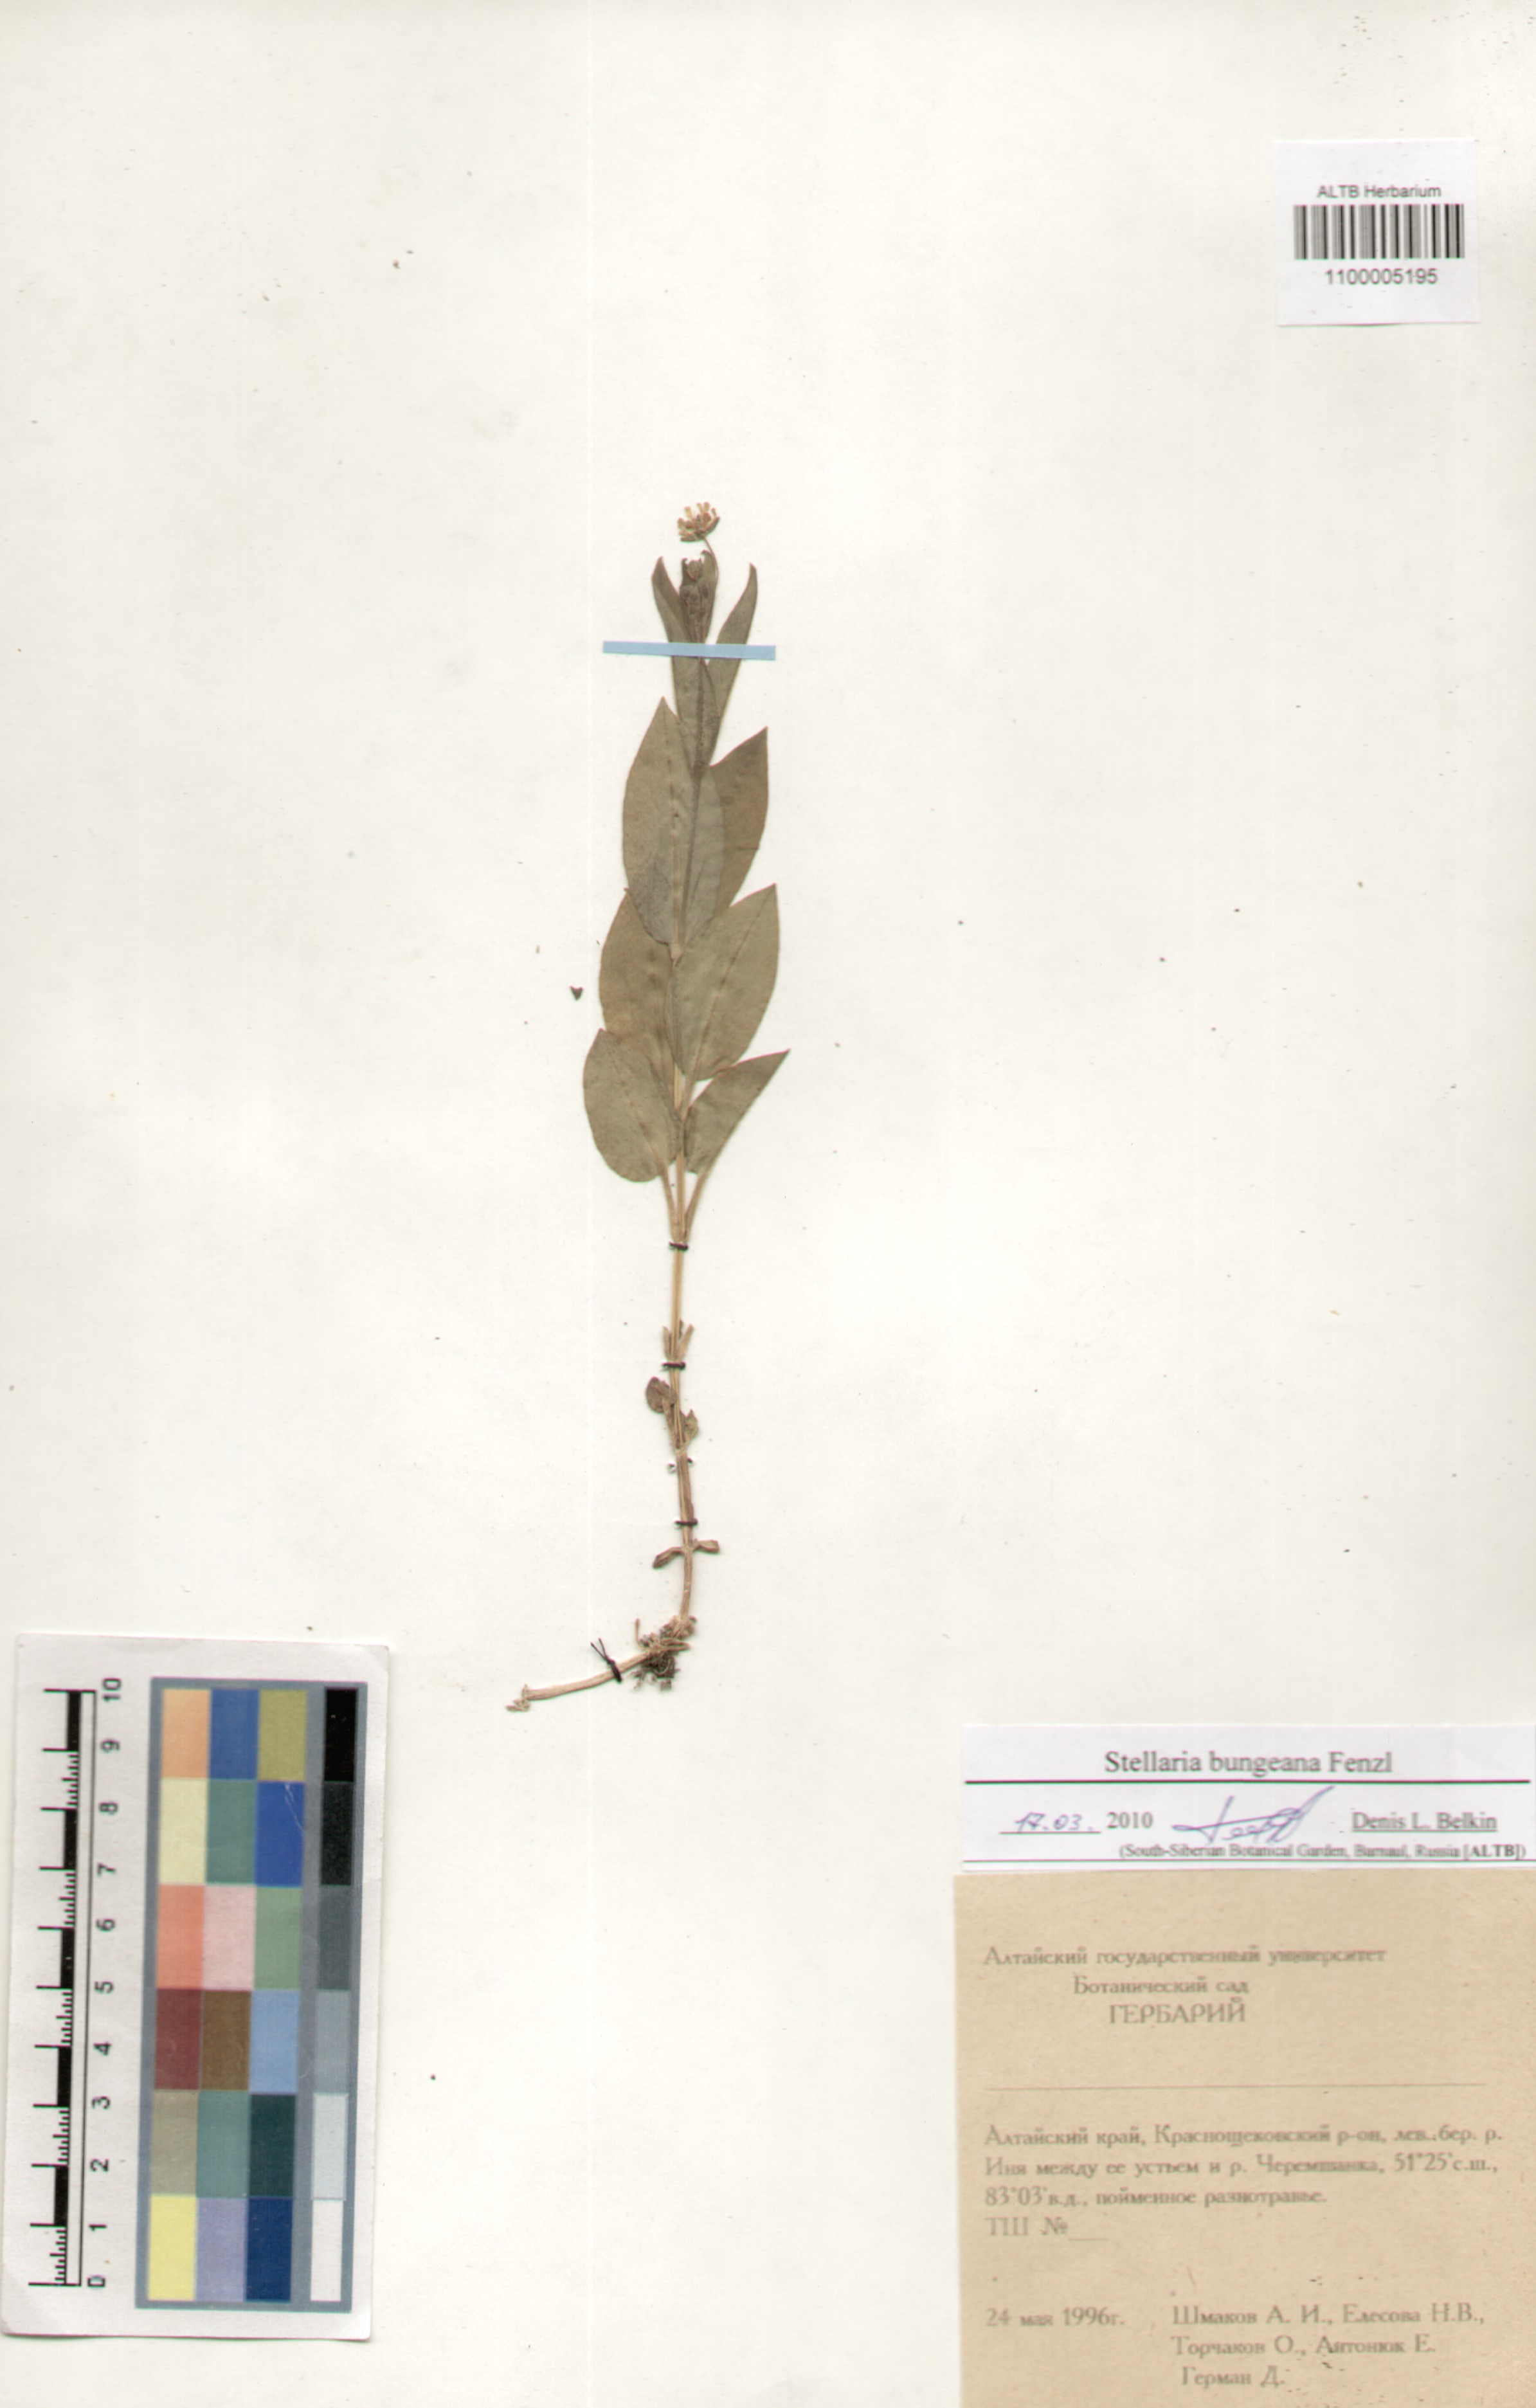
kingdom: Plantae
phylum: Tracheophyta
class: Magnoliopsida
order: Caryophyllales
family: Caryophyllaceae
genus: Stellaria
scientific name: Stellaria bungeana
